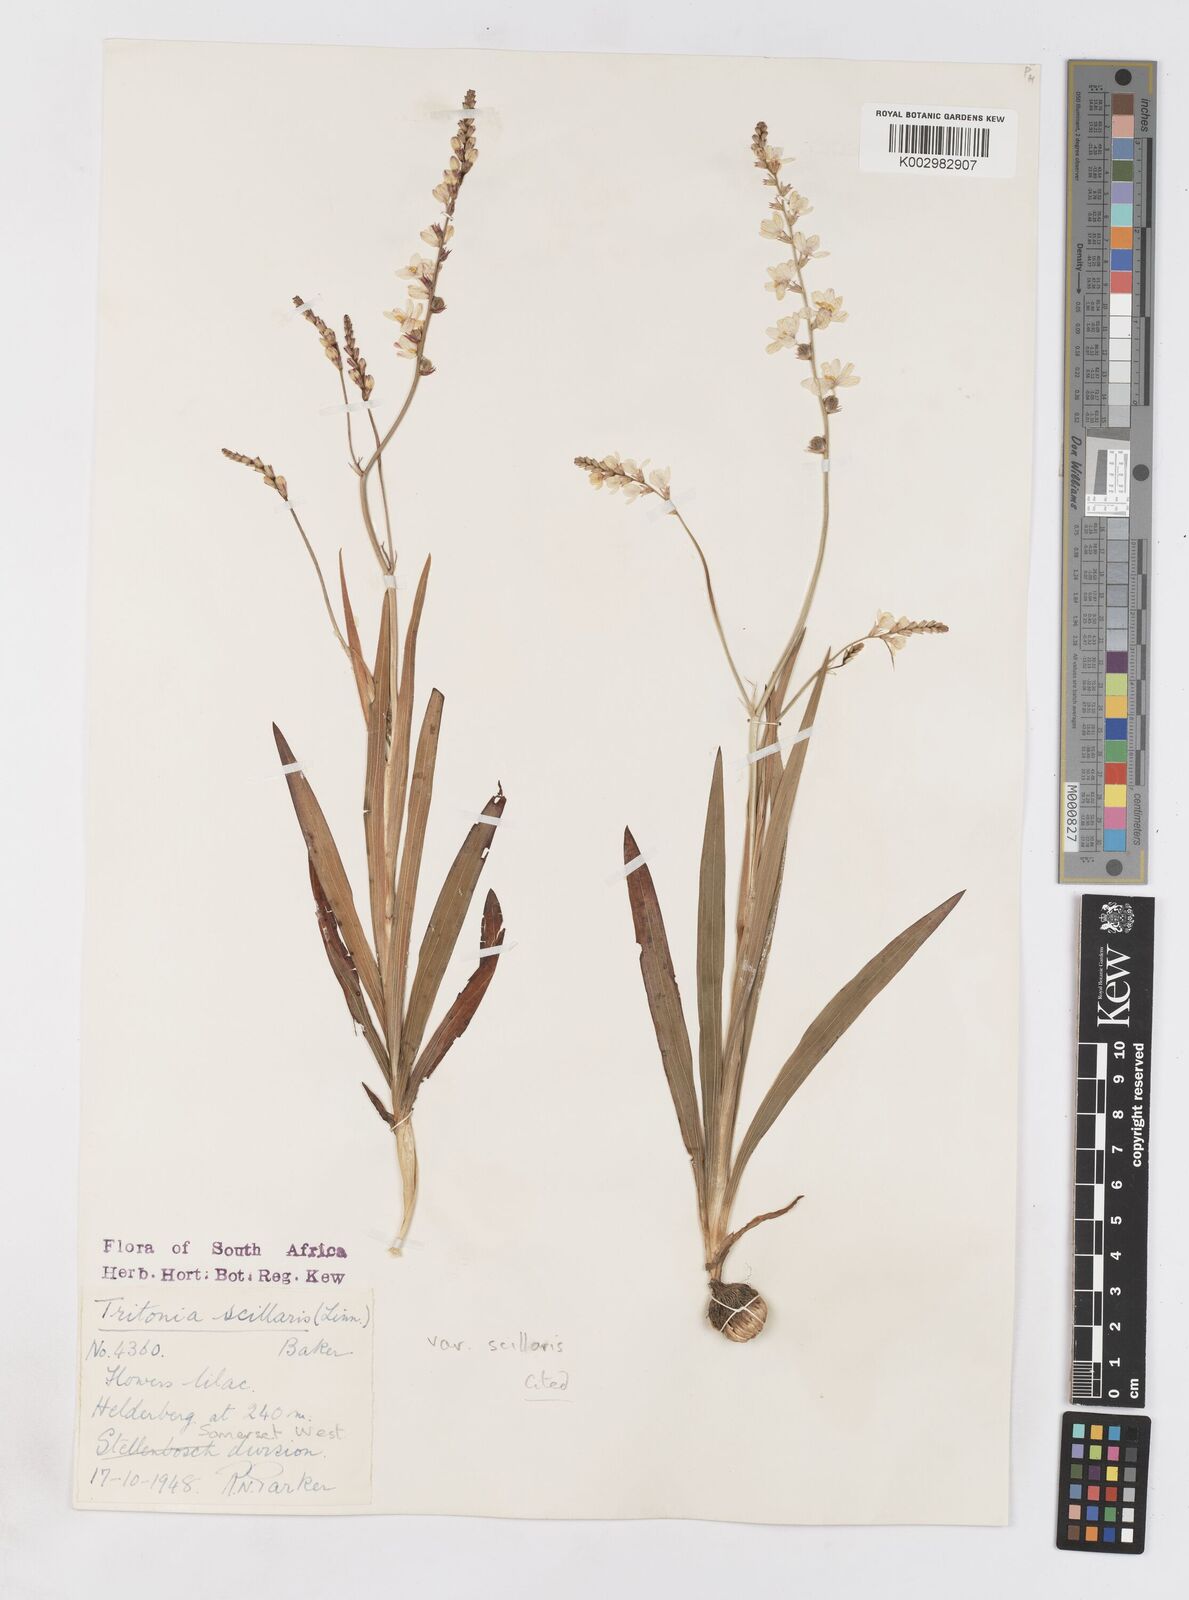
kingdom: Plantae
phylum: Tracheophyta
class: Liliopsida
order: Asparagales
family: Iridaceae
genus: Ixia
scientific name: Ixia scillaris
